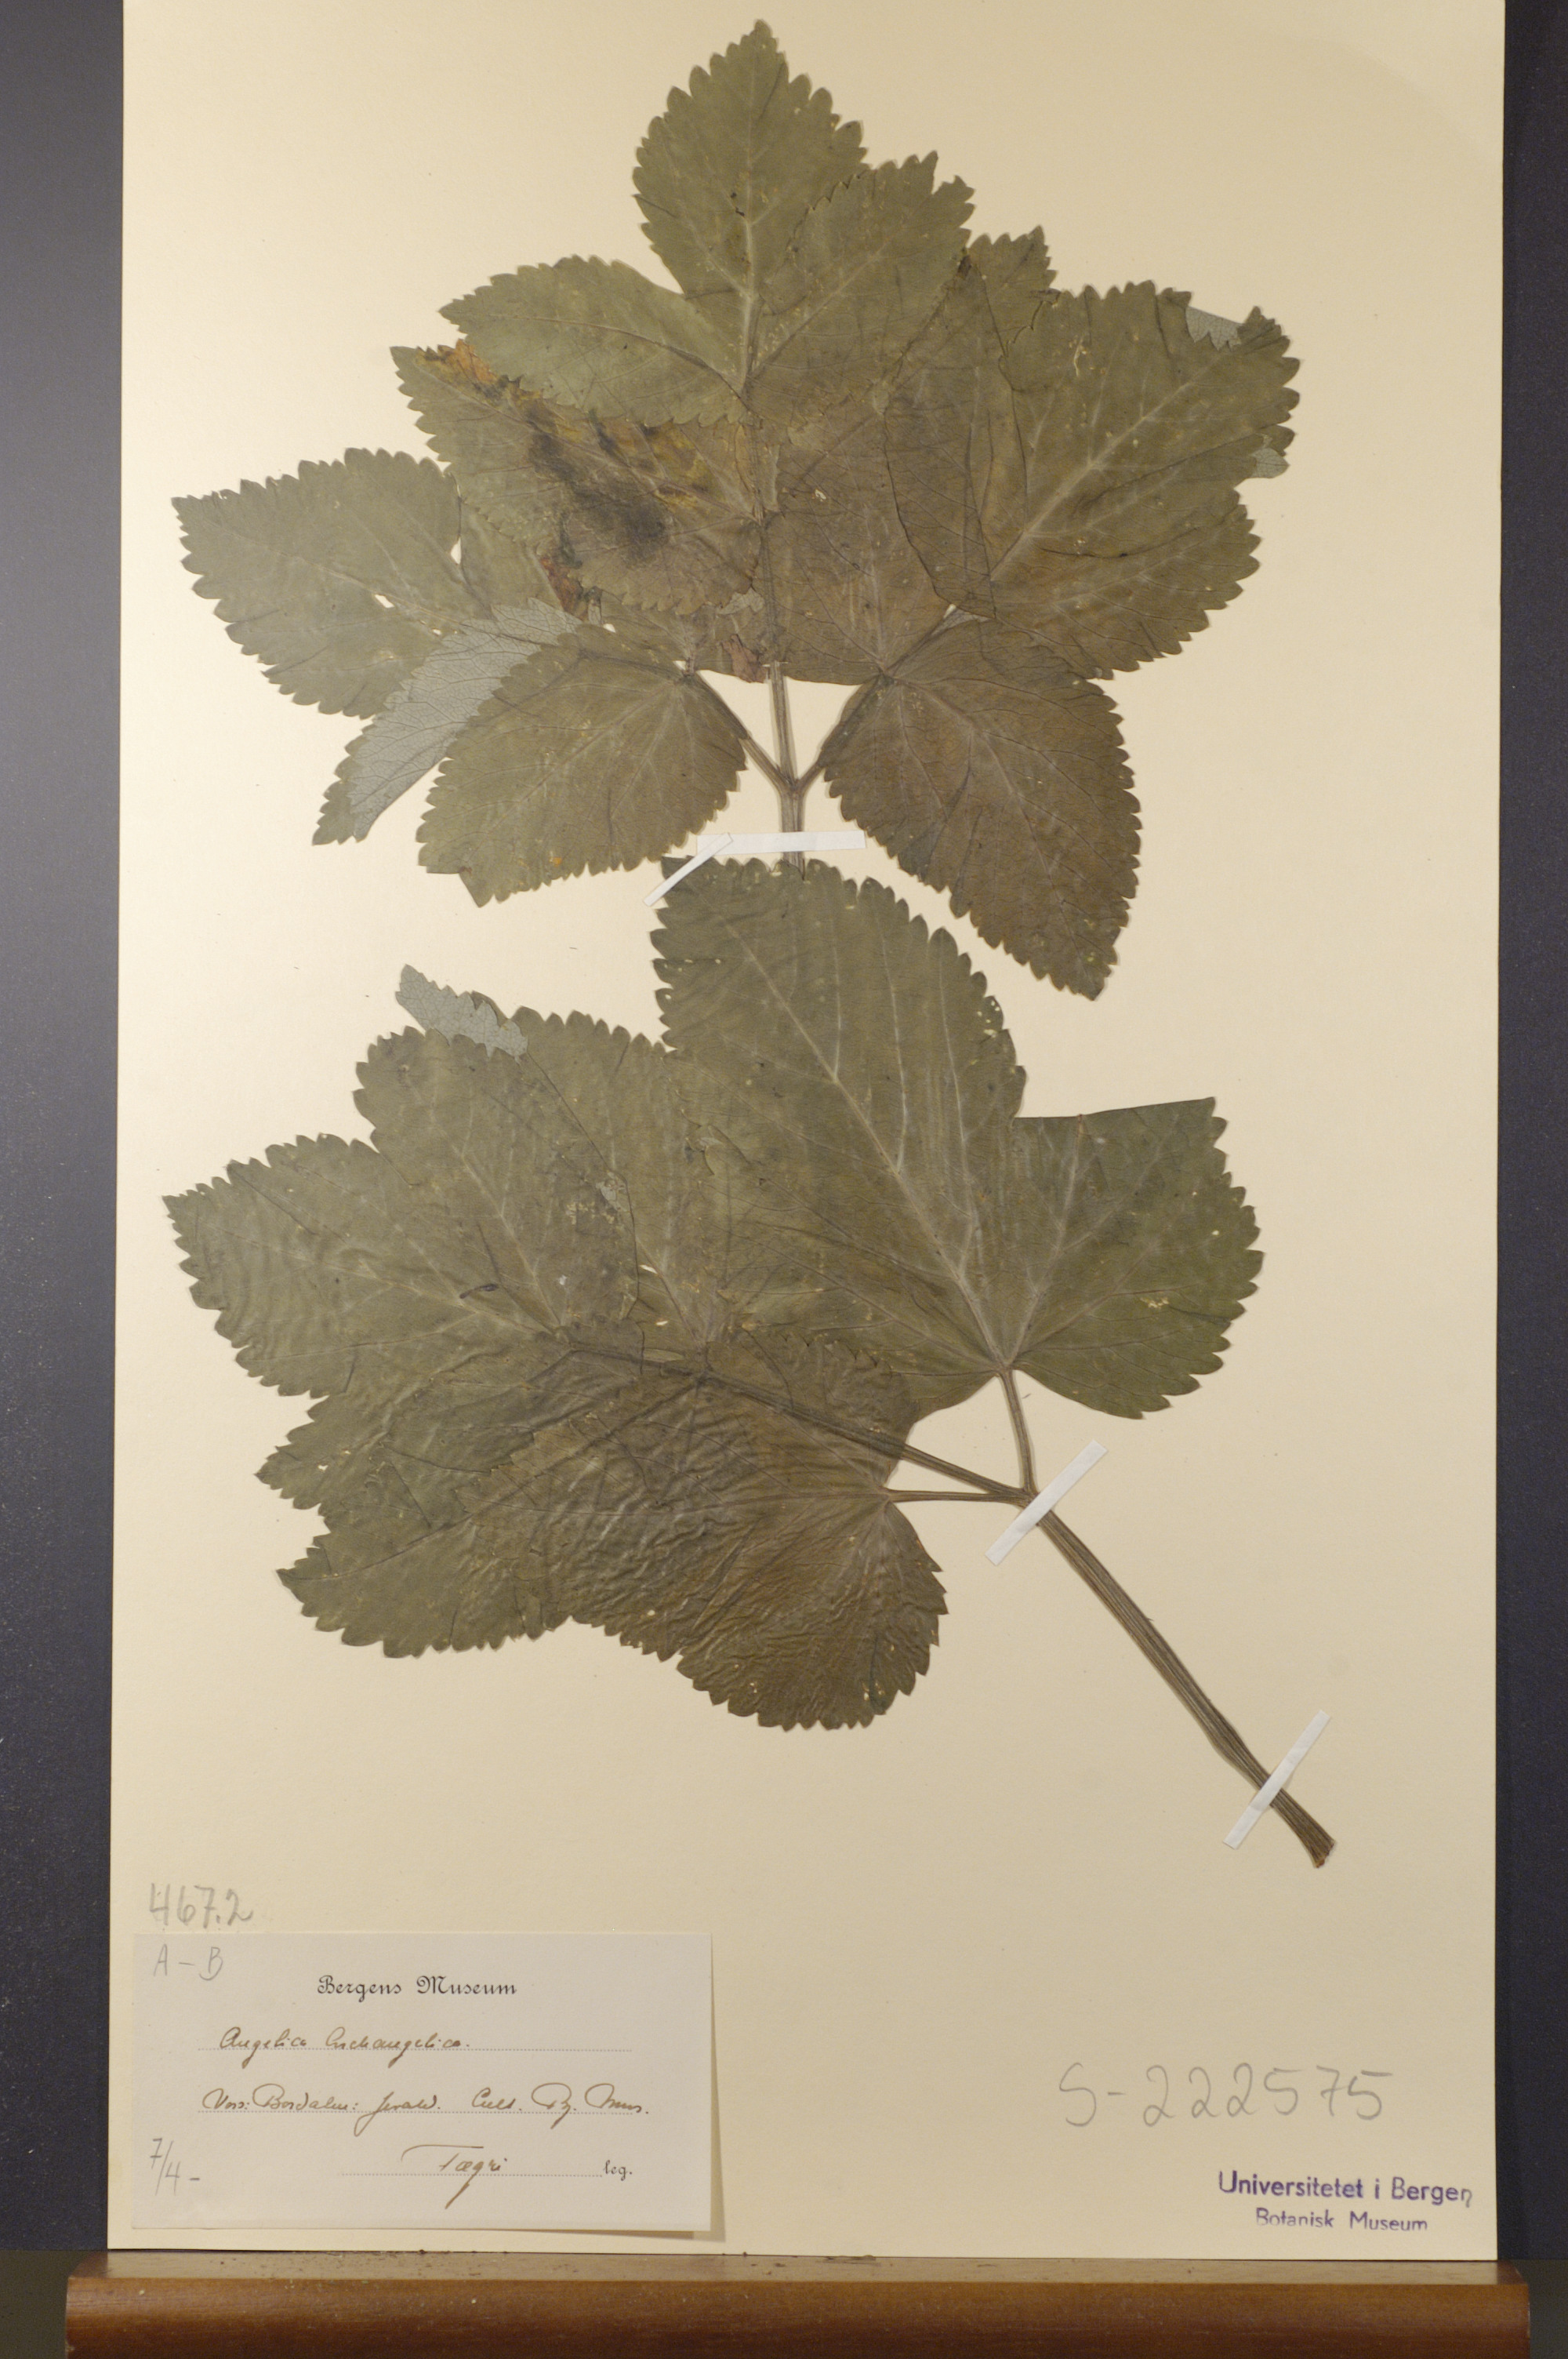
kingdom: Plantae
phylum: Tracheophyta
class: Magnoliopsida
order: Apiales
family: Apiaceae
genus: Angelica
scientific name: Angelica archangelica
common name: Garden angelica
